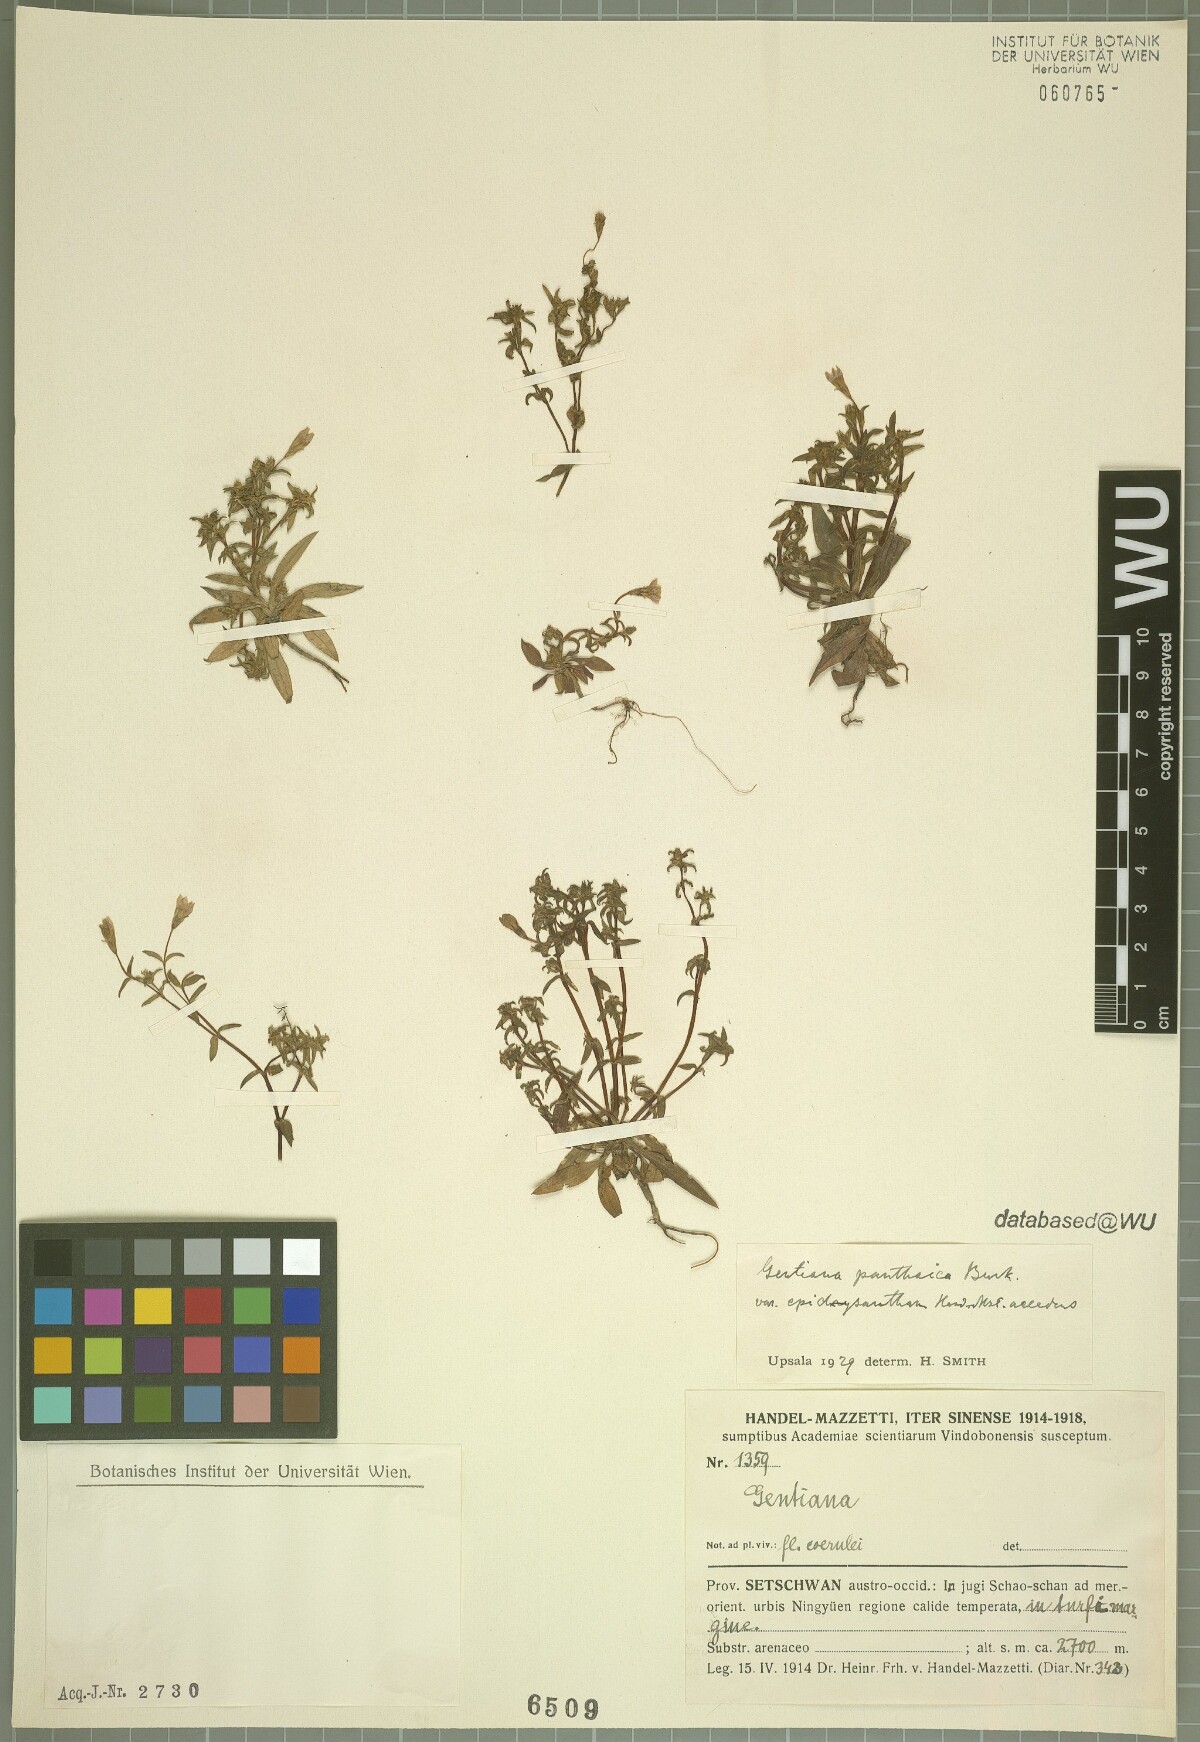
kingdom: Plantae
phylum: Tracheophyta
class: Magnoliopsida
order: Gentianales
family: Gentianaceae
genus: Gentiana
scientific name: Gentiana panthaica
